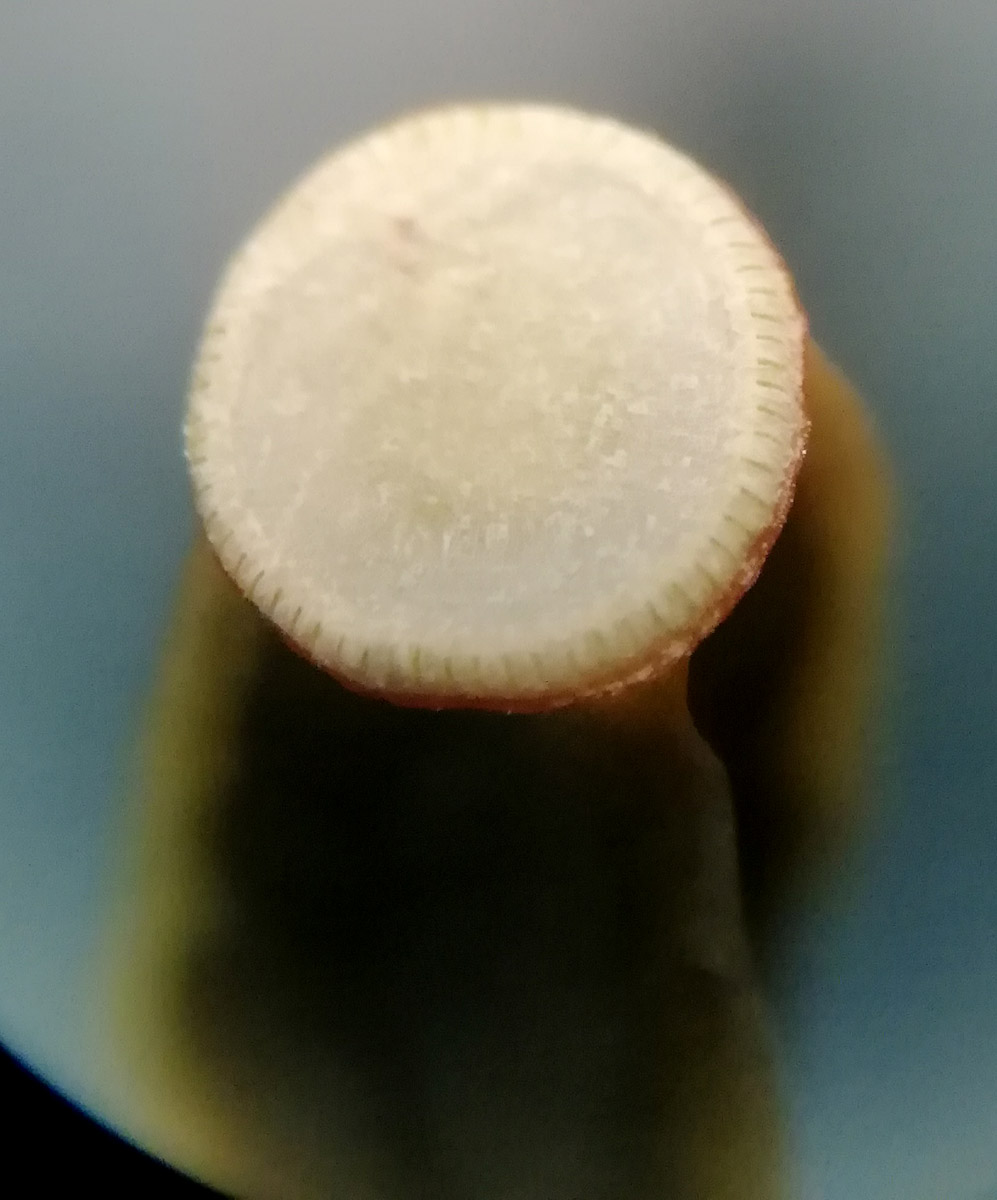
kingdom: Plantae
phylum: Bryophyta
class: Polytrichopsida
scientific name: Polytrichopsida
